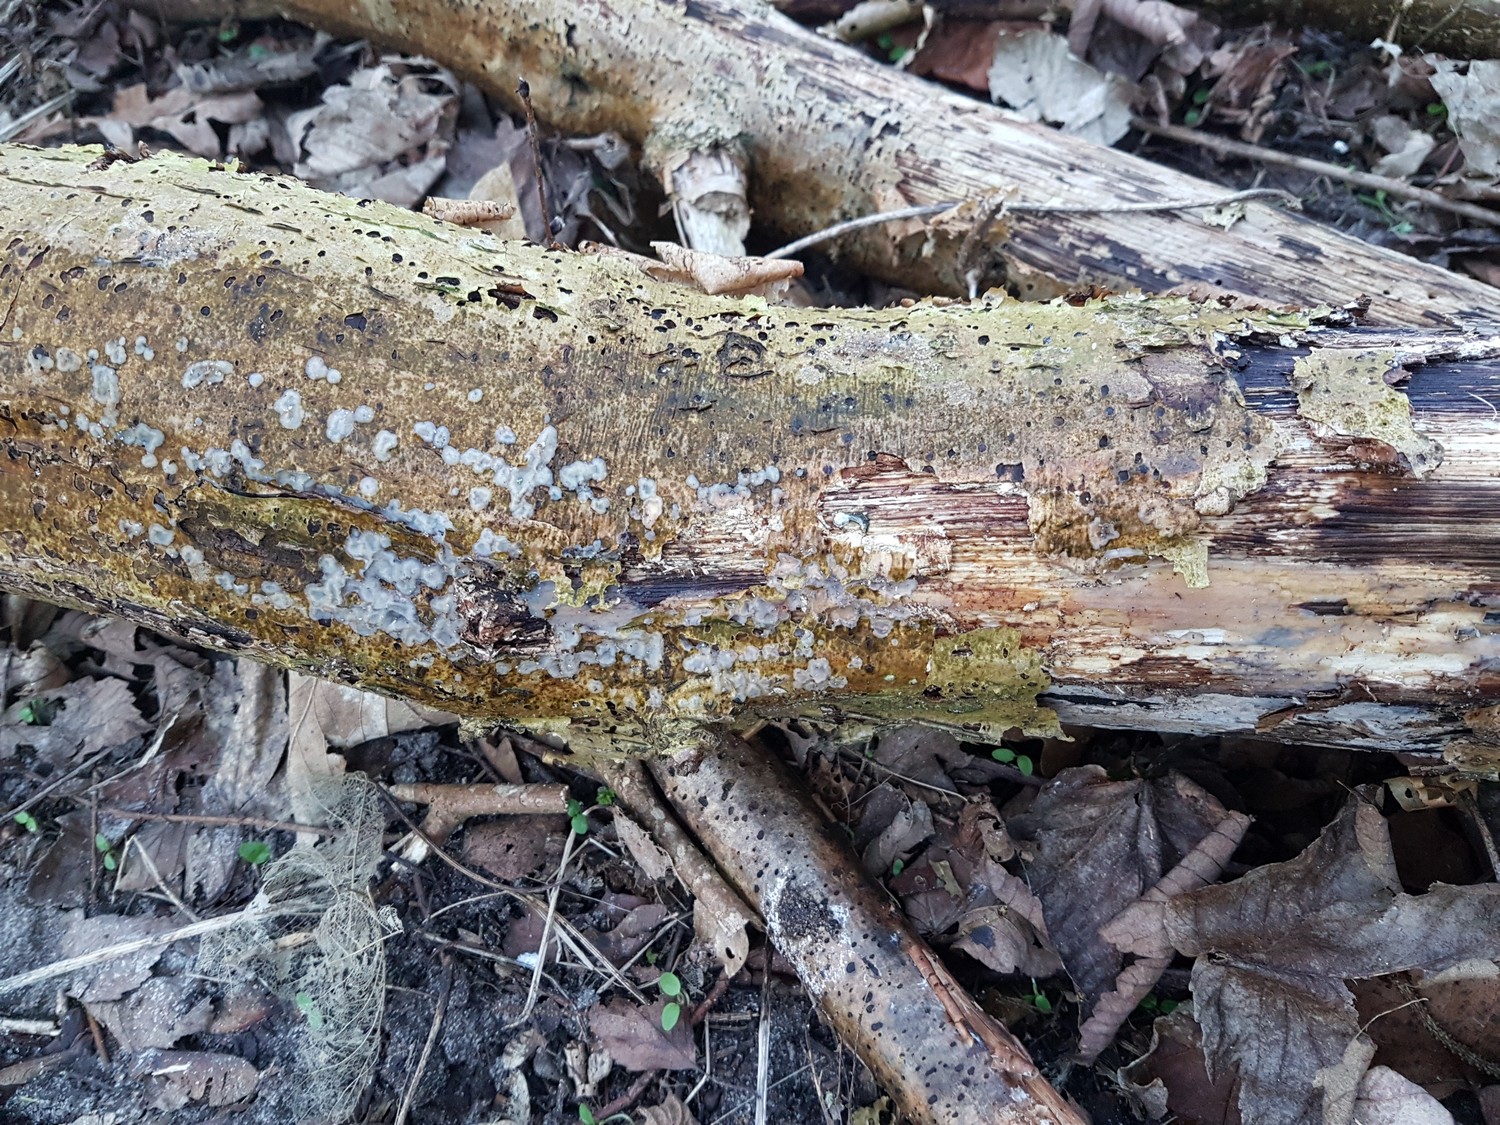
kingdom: Fungi
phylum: Basidiomycota
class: Agaricomycetes
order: Auriculariales
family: Auriculariaceae
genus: Exidia
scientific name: Exidia thuretiana
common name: hvidlig bævretop
